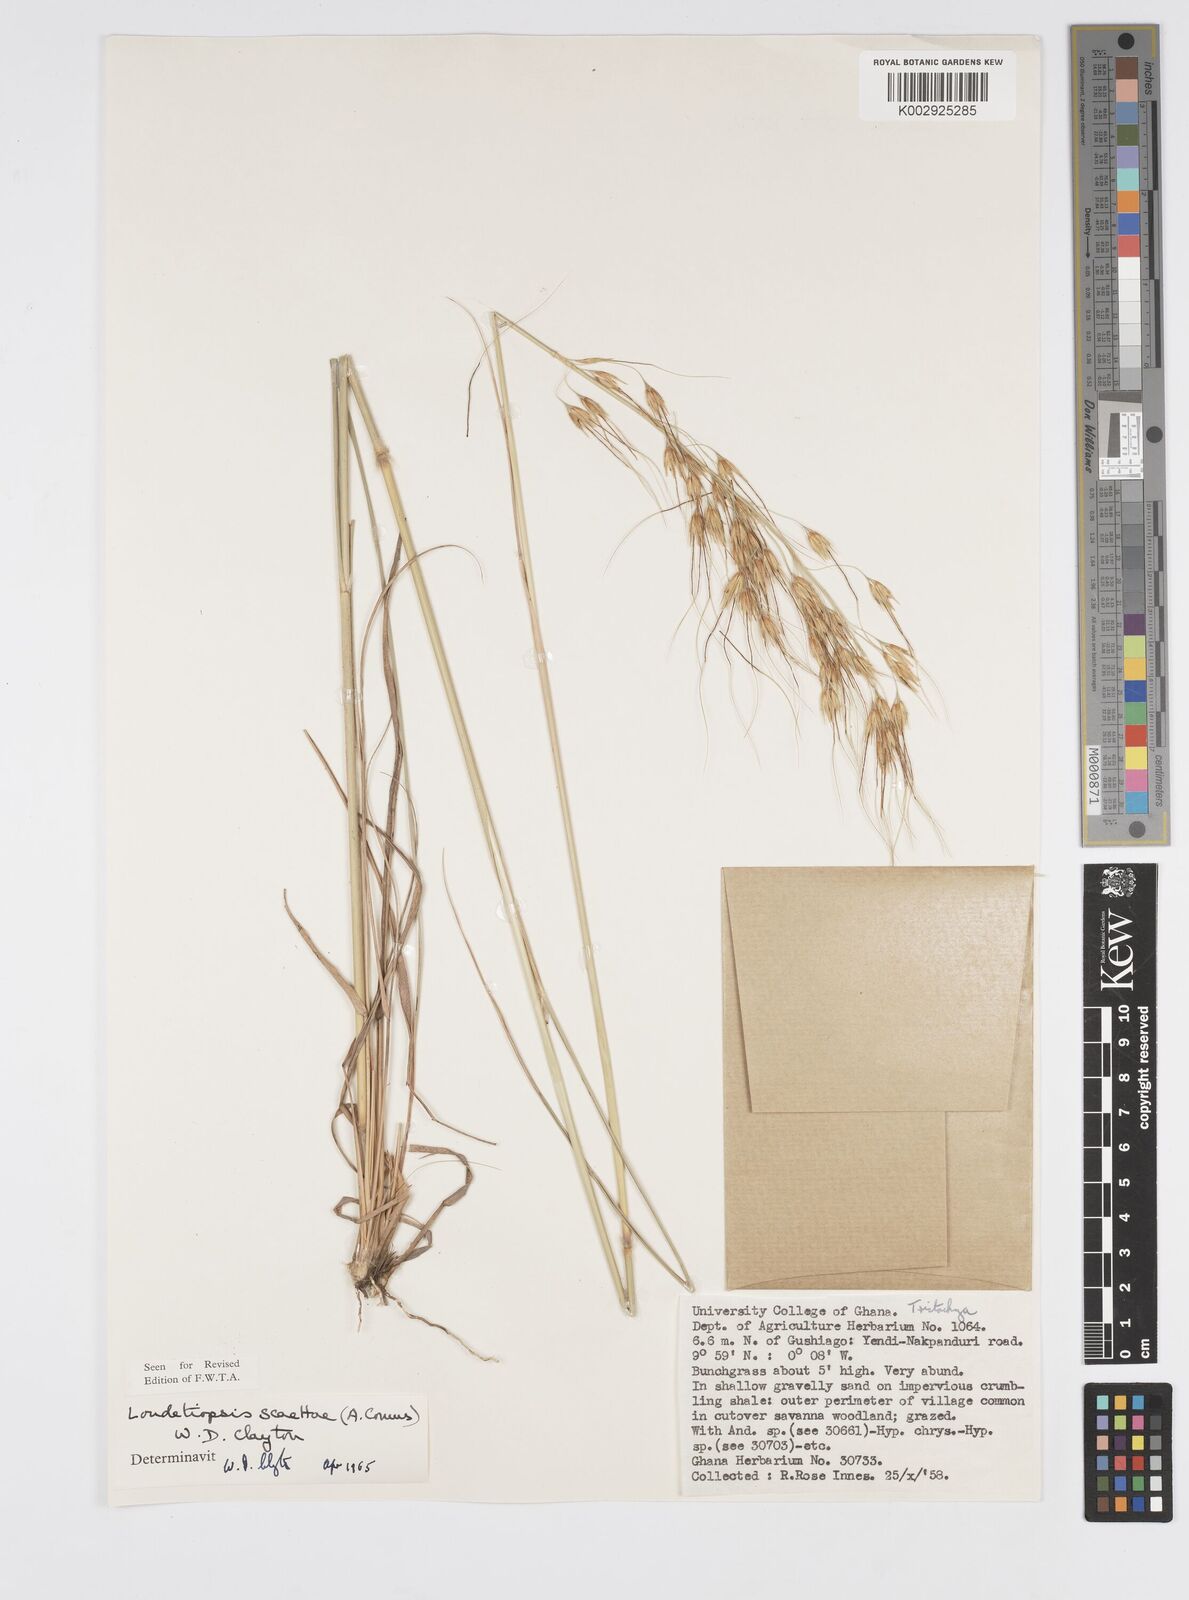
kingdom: Plantae
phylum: Tracheophyta
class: Liliopsida
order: Poales
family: Poaceae
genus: Loudetiopsis
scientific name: Loudetiopsis scaettae
